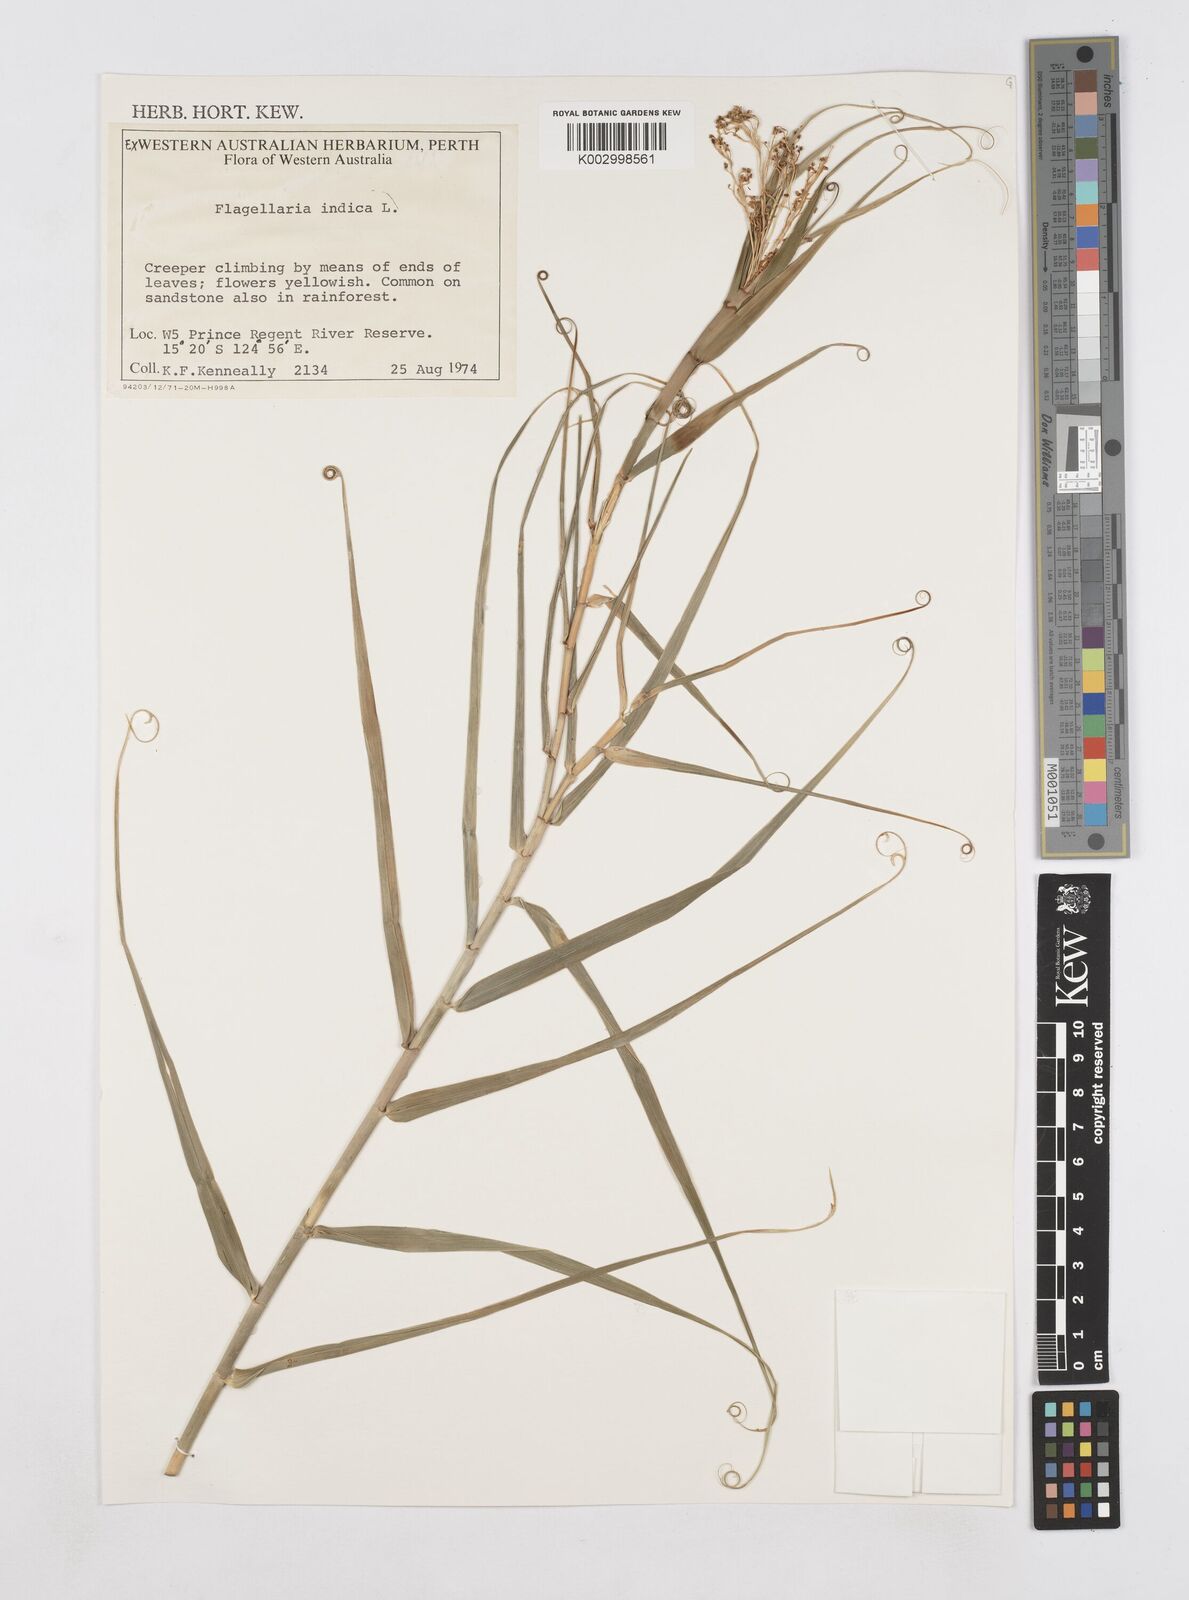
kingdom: Plantae
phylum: Tracheophyta
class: Liliopsida
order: Poales
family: Flagellariaceae
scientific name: Flagellariaceae
